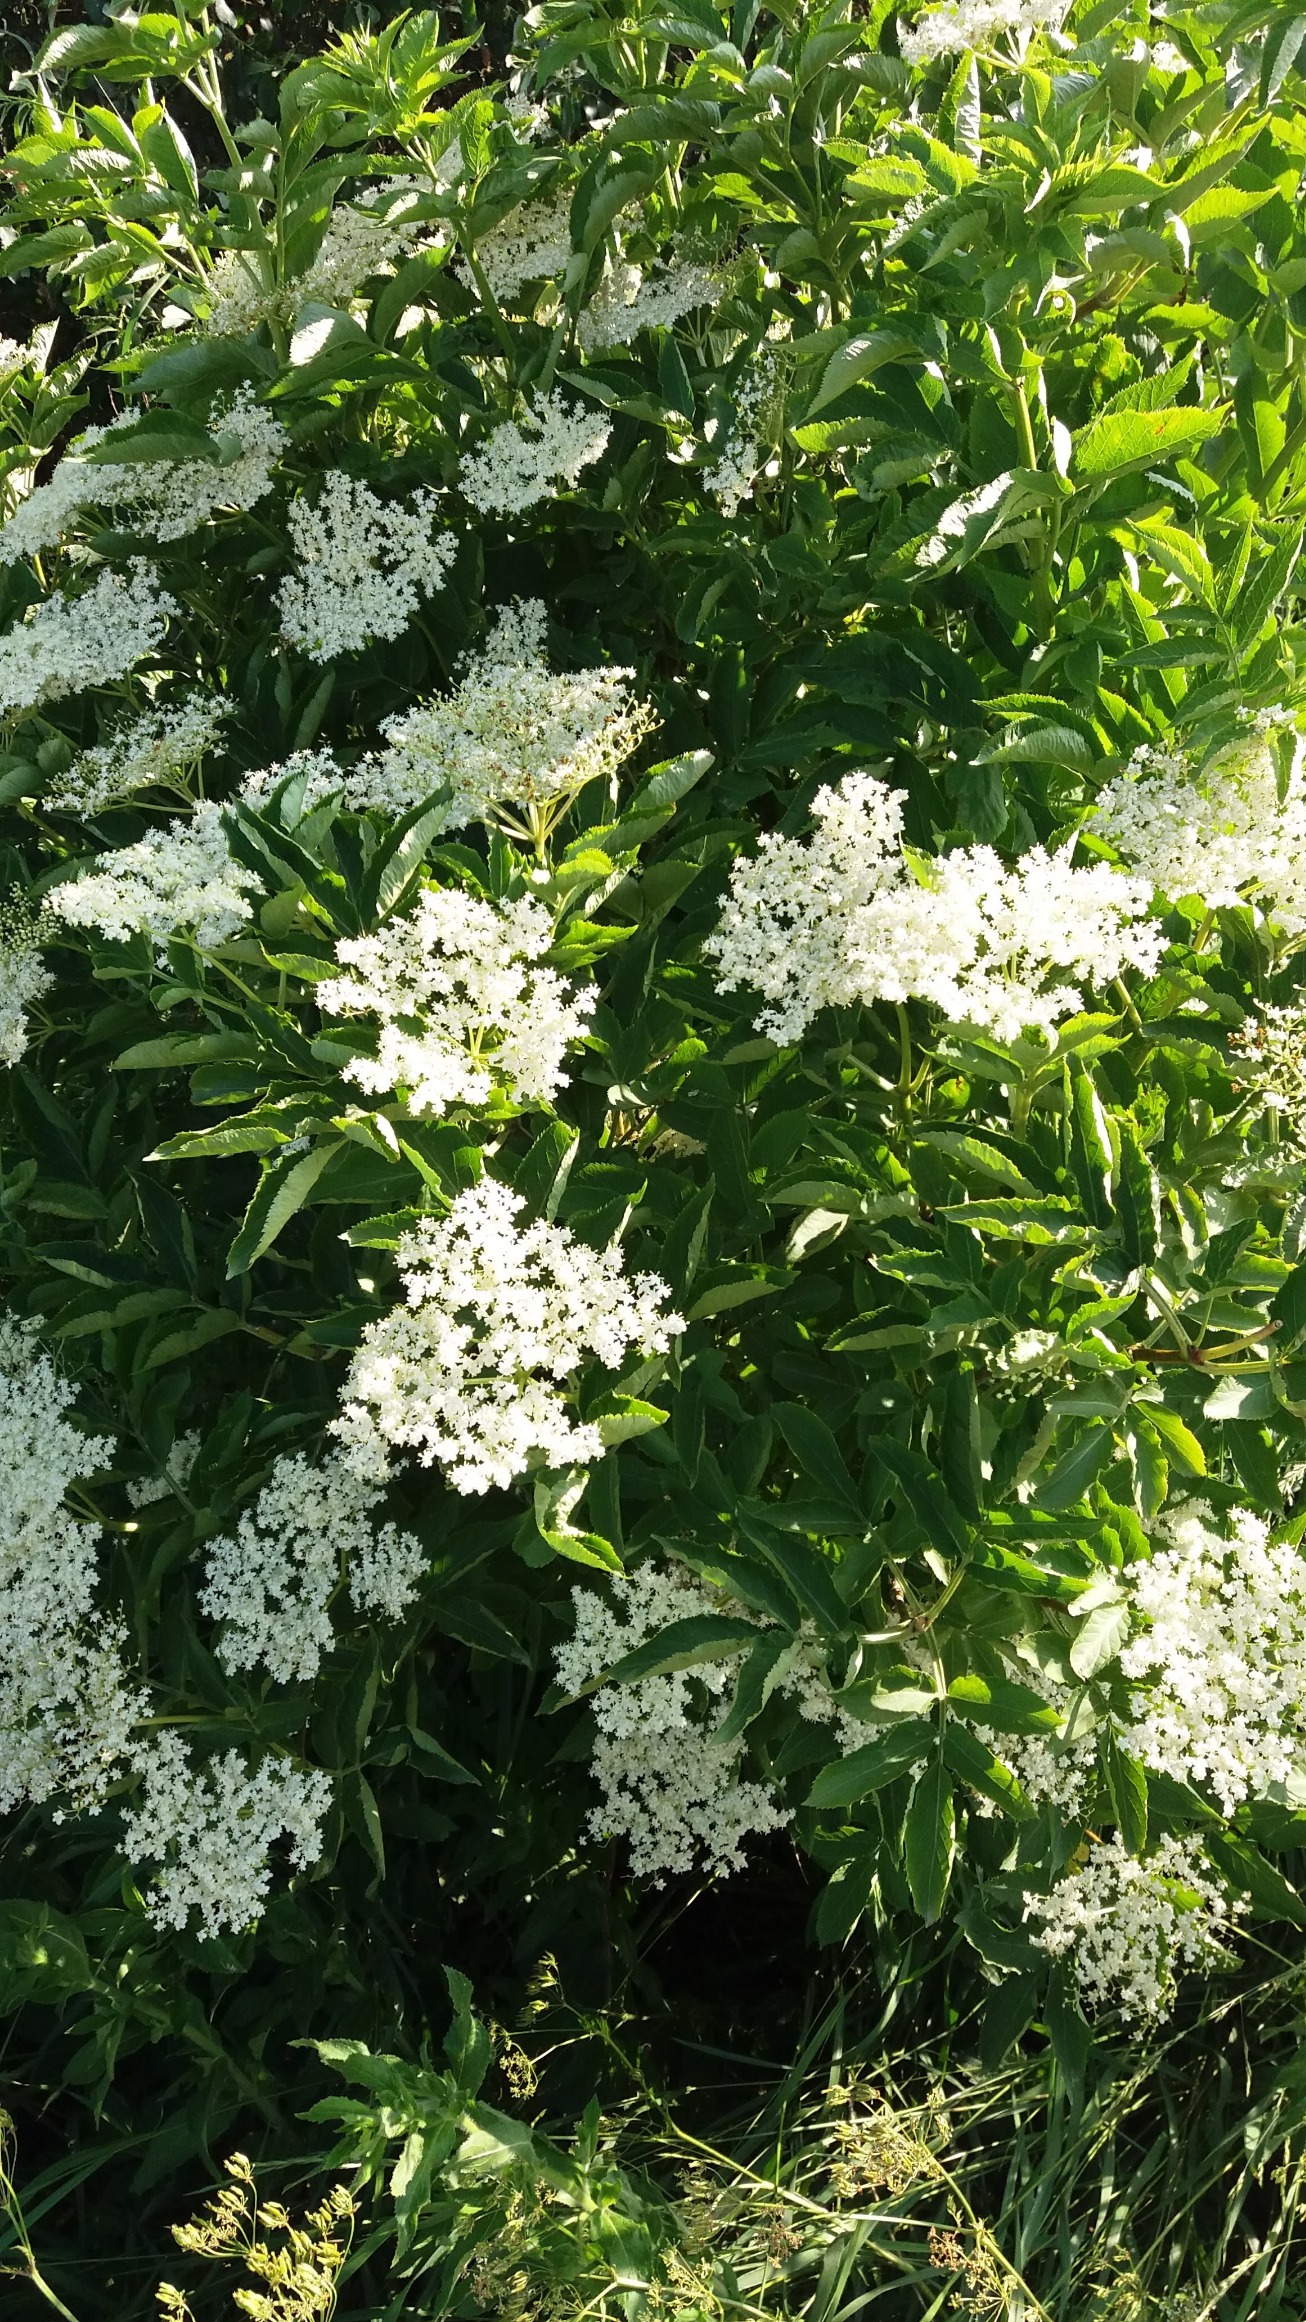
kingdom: Plantae
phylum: Tracheophyta
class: Magnoliopsida
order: Dipsacales
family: Viburnaceae
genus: Sambucus
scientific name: Sambucus nigra
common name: Almindelig hyld
